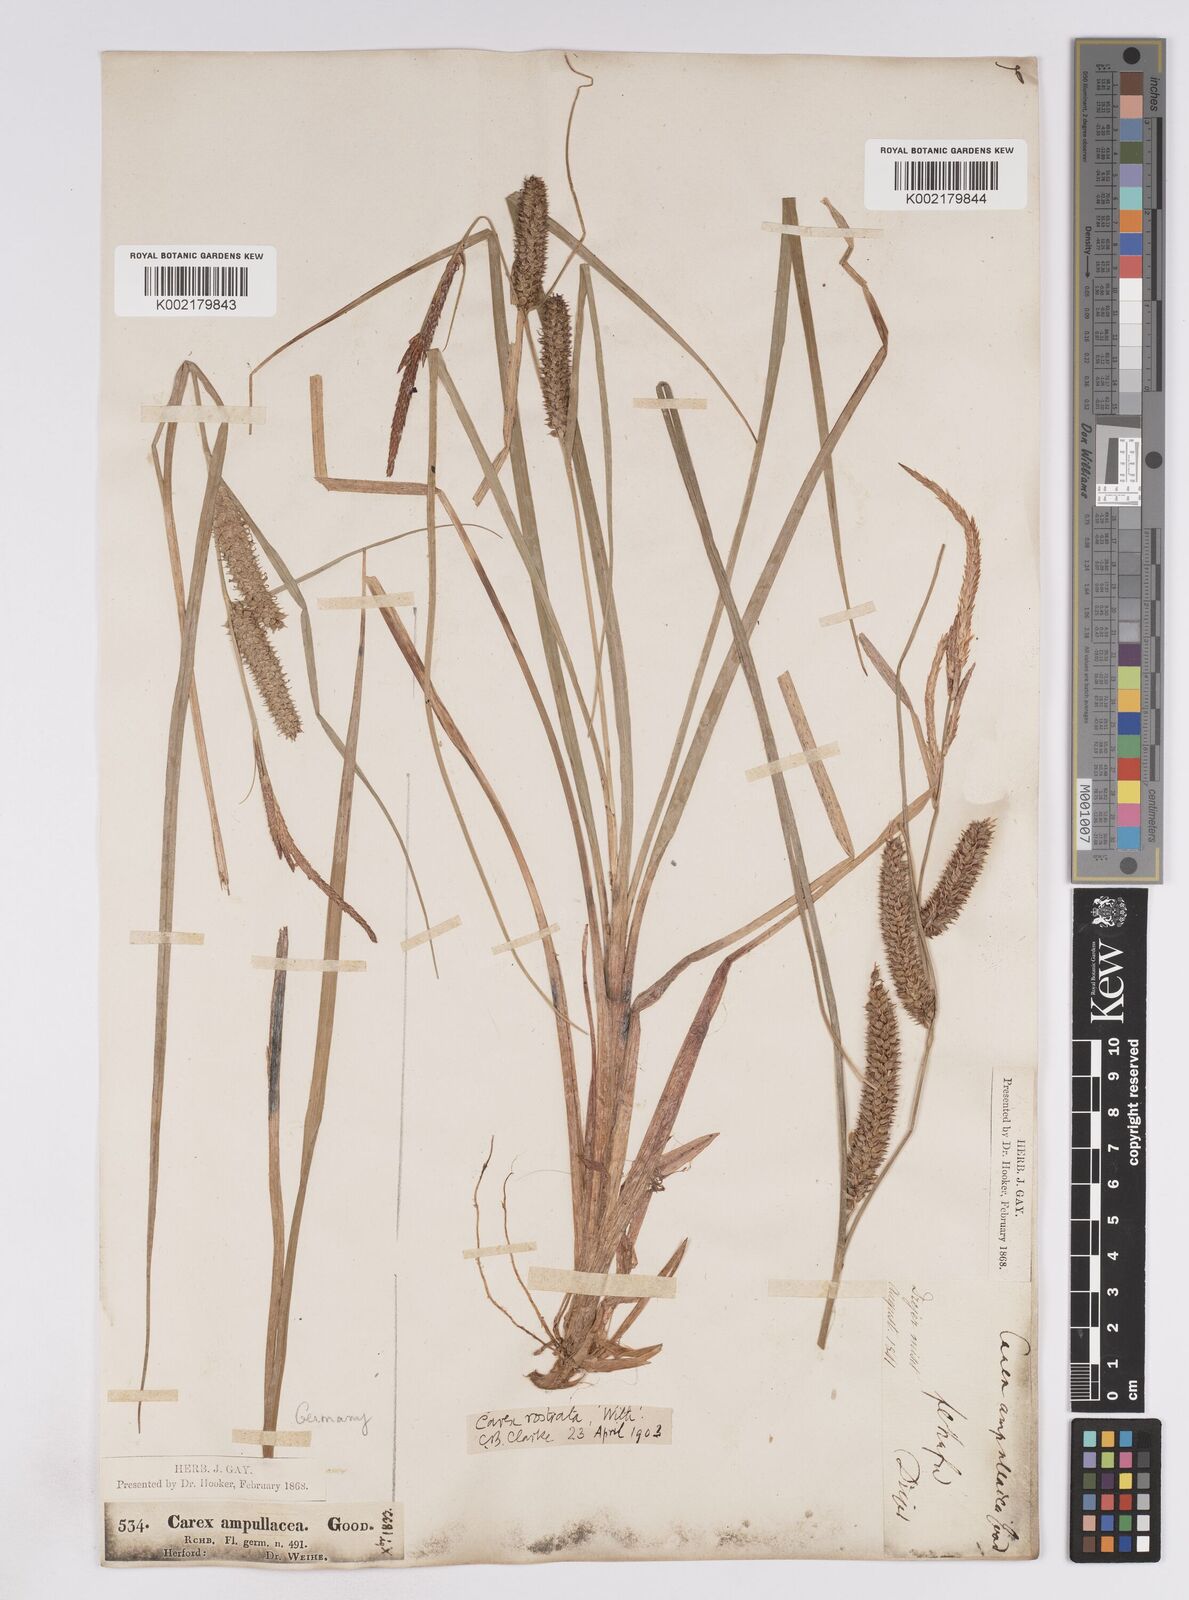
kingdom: Plantae
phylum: Tracheophyta
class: Liliopsida
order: Poales
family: Cyperaceae
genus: Carex
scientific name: Carex rostrata
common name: Bottle sedge
